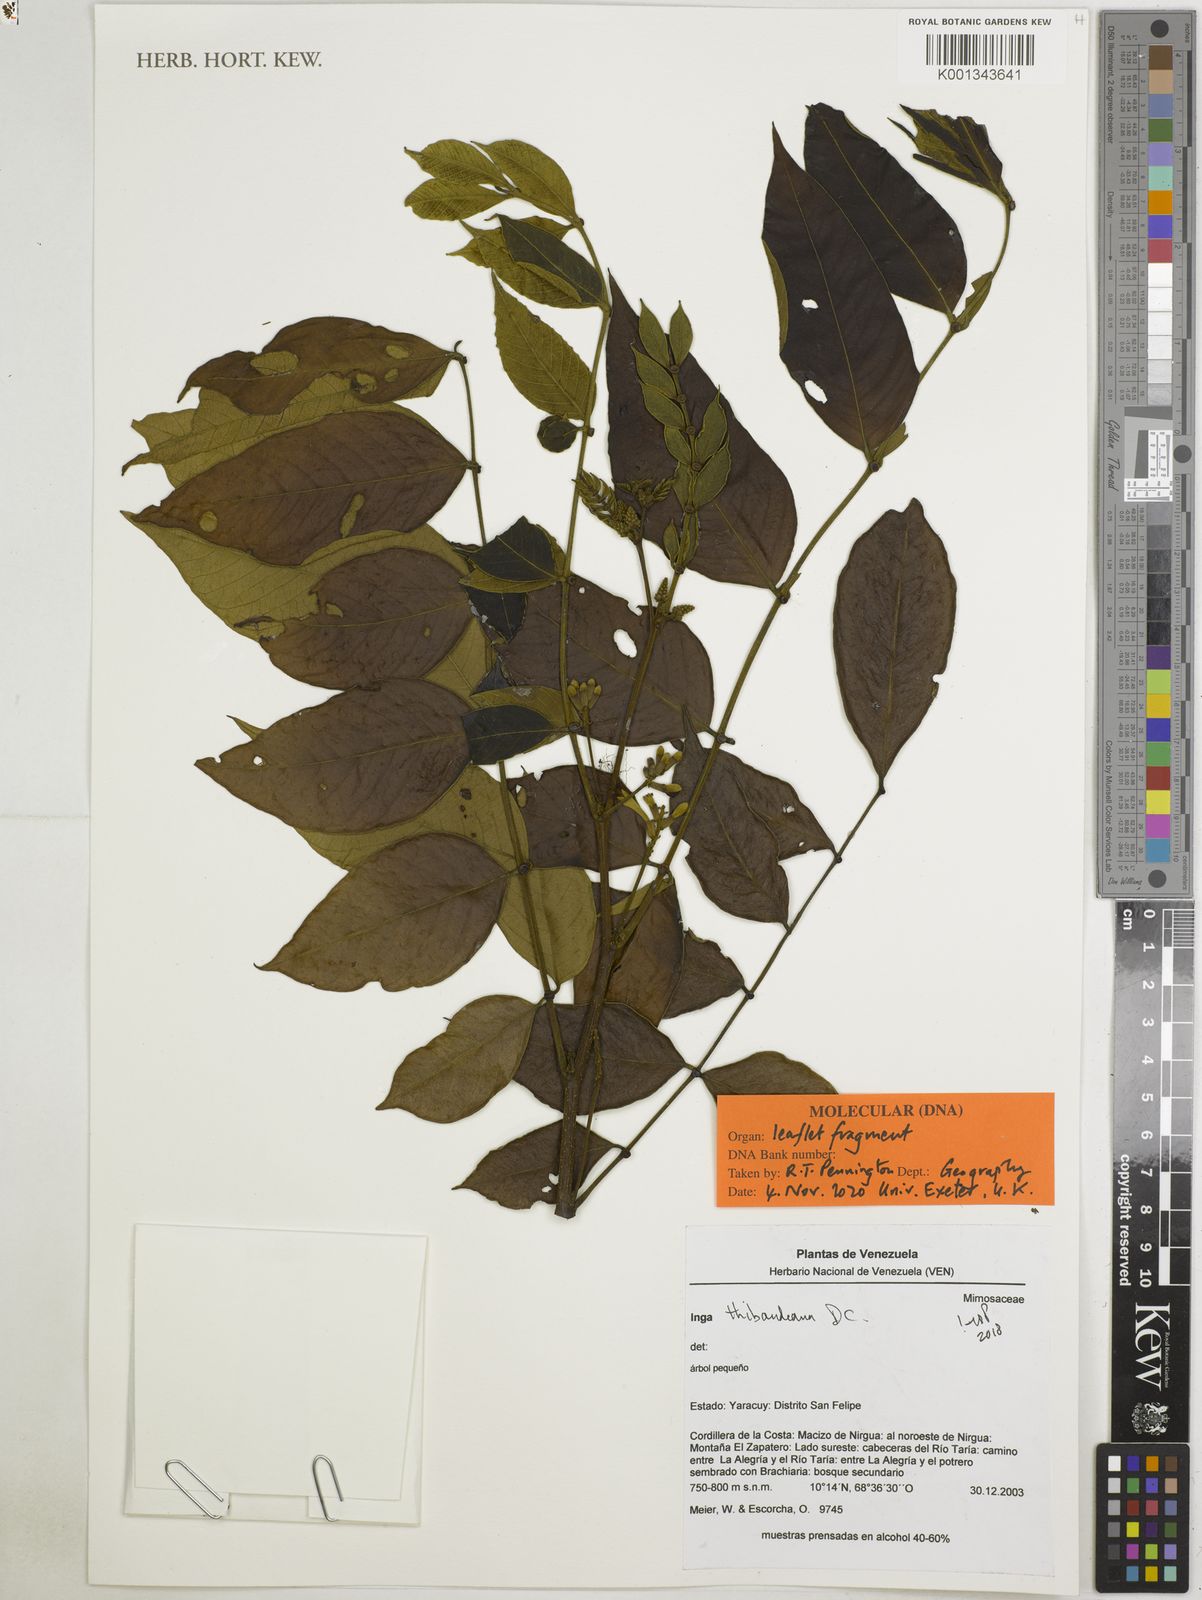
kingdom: Plantae
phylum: Tracheophyta
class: Magnoliopsida
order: Fabales
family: Fabaceae
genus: Inga
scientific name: Inga thibaudiana
